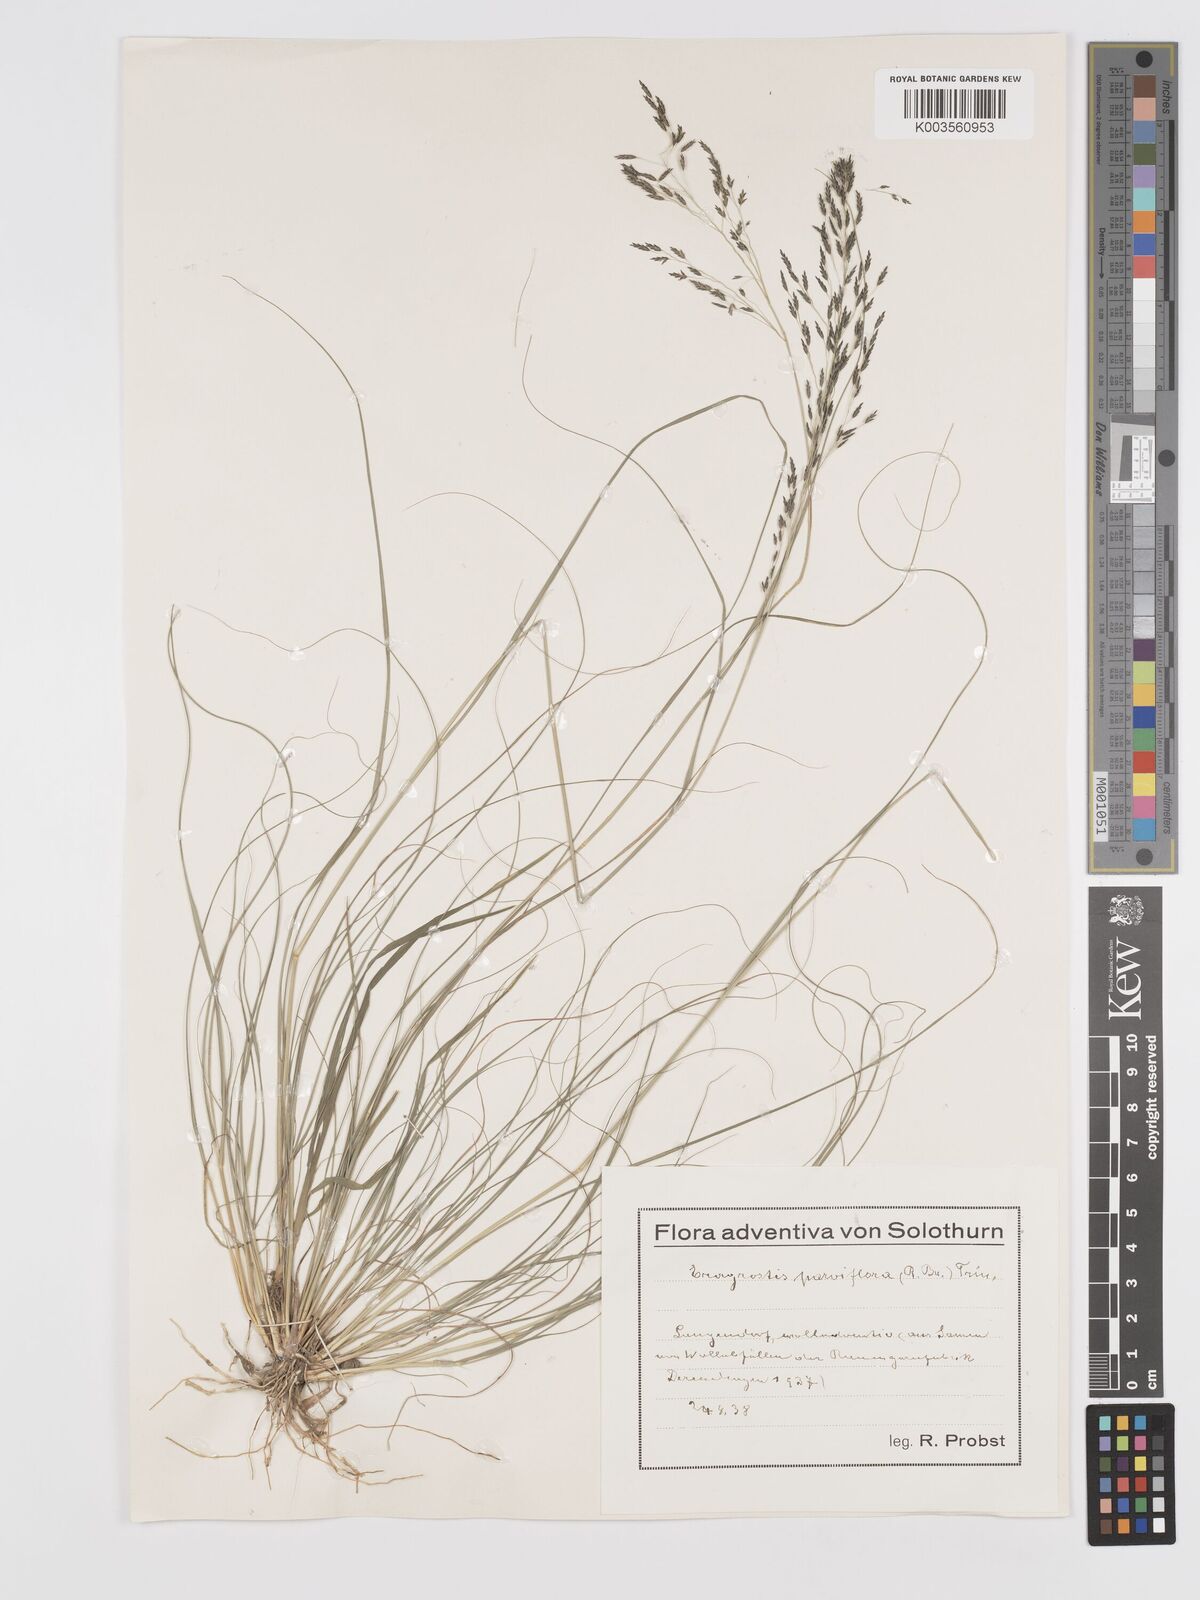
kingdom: Plantae
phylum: Tracheophyta
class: Liliopsida
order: Poales
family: Poaceae
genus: Eragrostis
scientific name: Eragrostis parviflora
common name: Weeping love-grass
